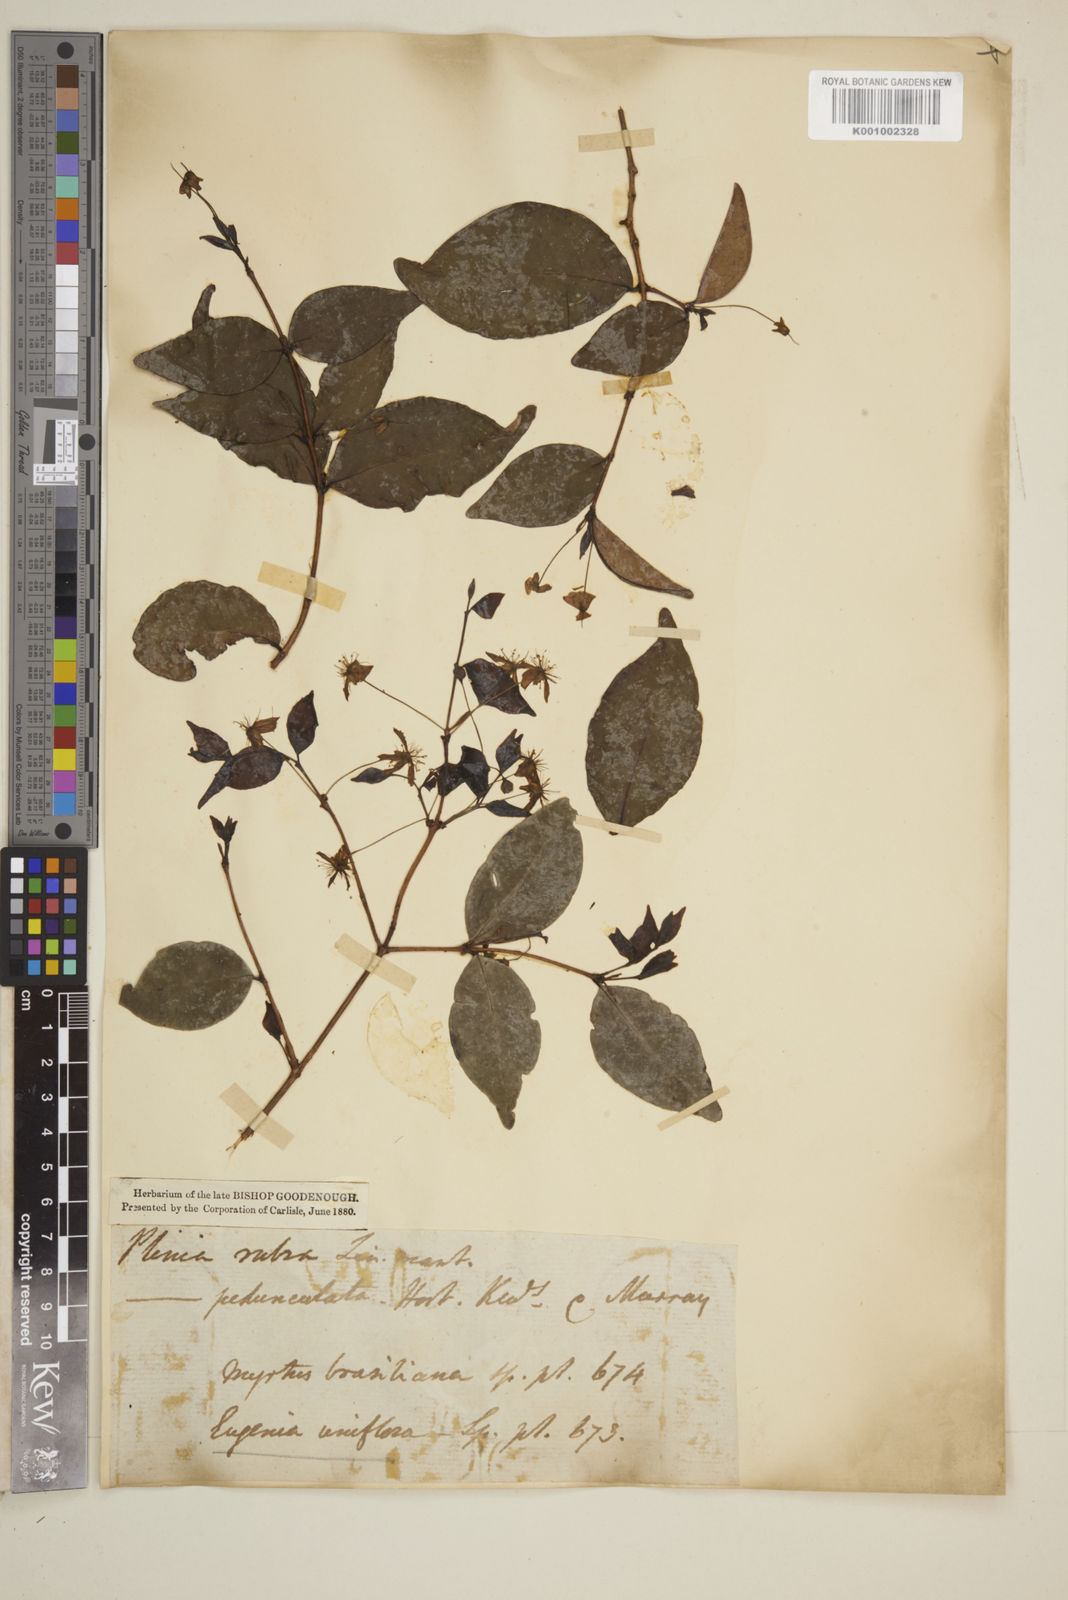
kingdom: Plantae
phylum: Tracheophyta
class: Magnoliopsida
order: Myrtales
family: Myrtaceae
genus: Eugenia
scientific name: Eugenia uniflora
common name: Surinam cherry
